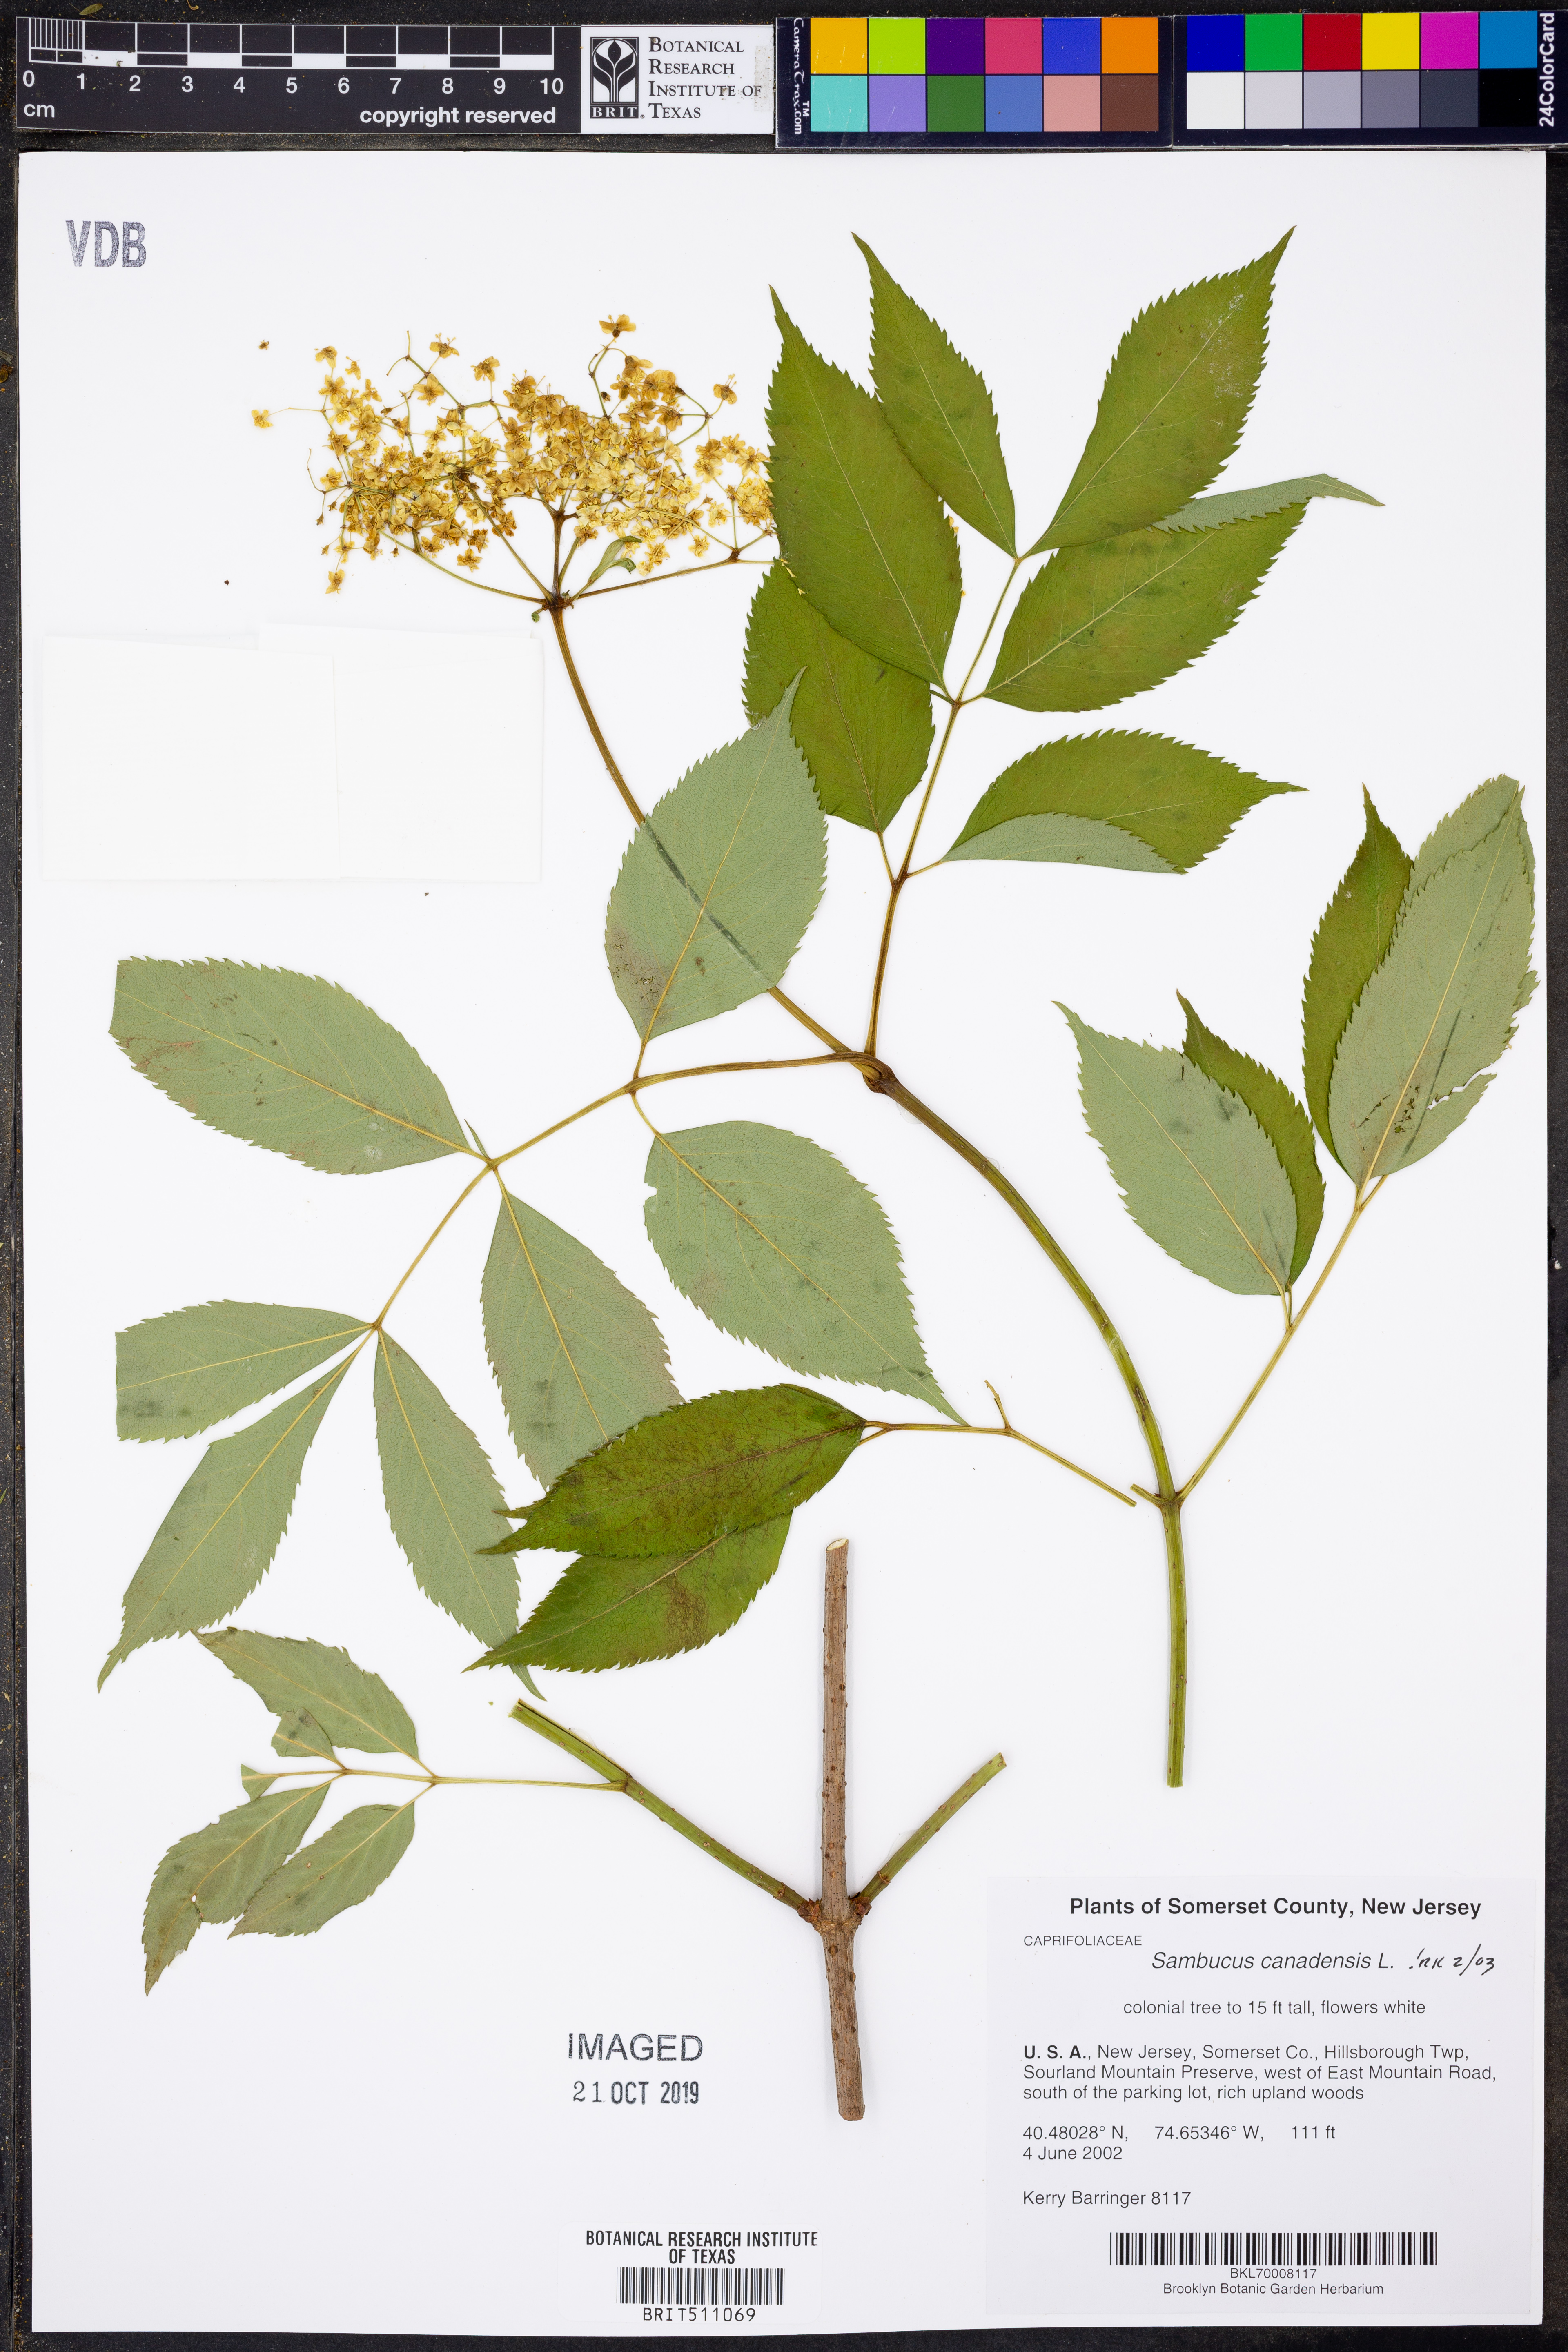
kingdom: Plantae
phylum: Tracheophyta
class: Magnoliopsida
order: Dipsacales
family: Viburnaceae
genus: Sambucus
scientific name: Sambucus canadensis
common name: American elder
